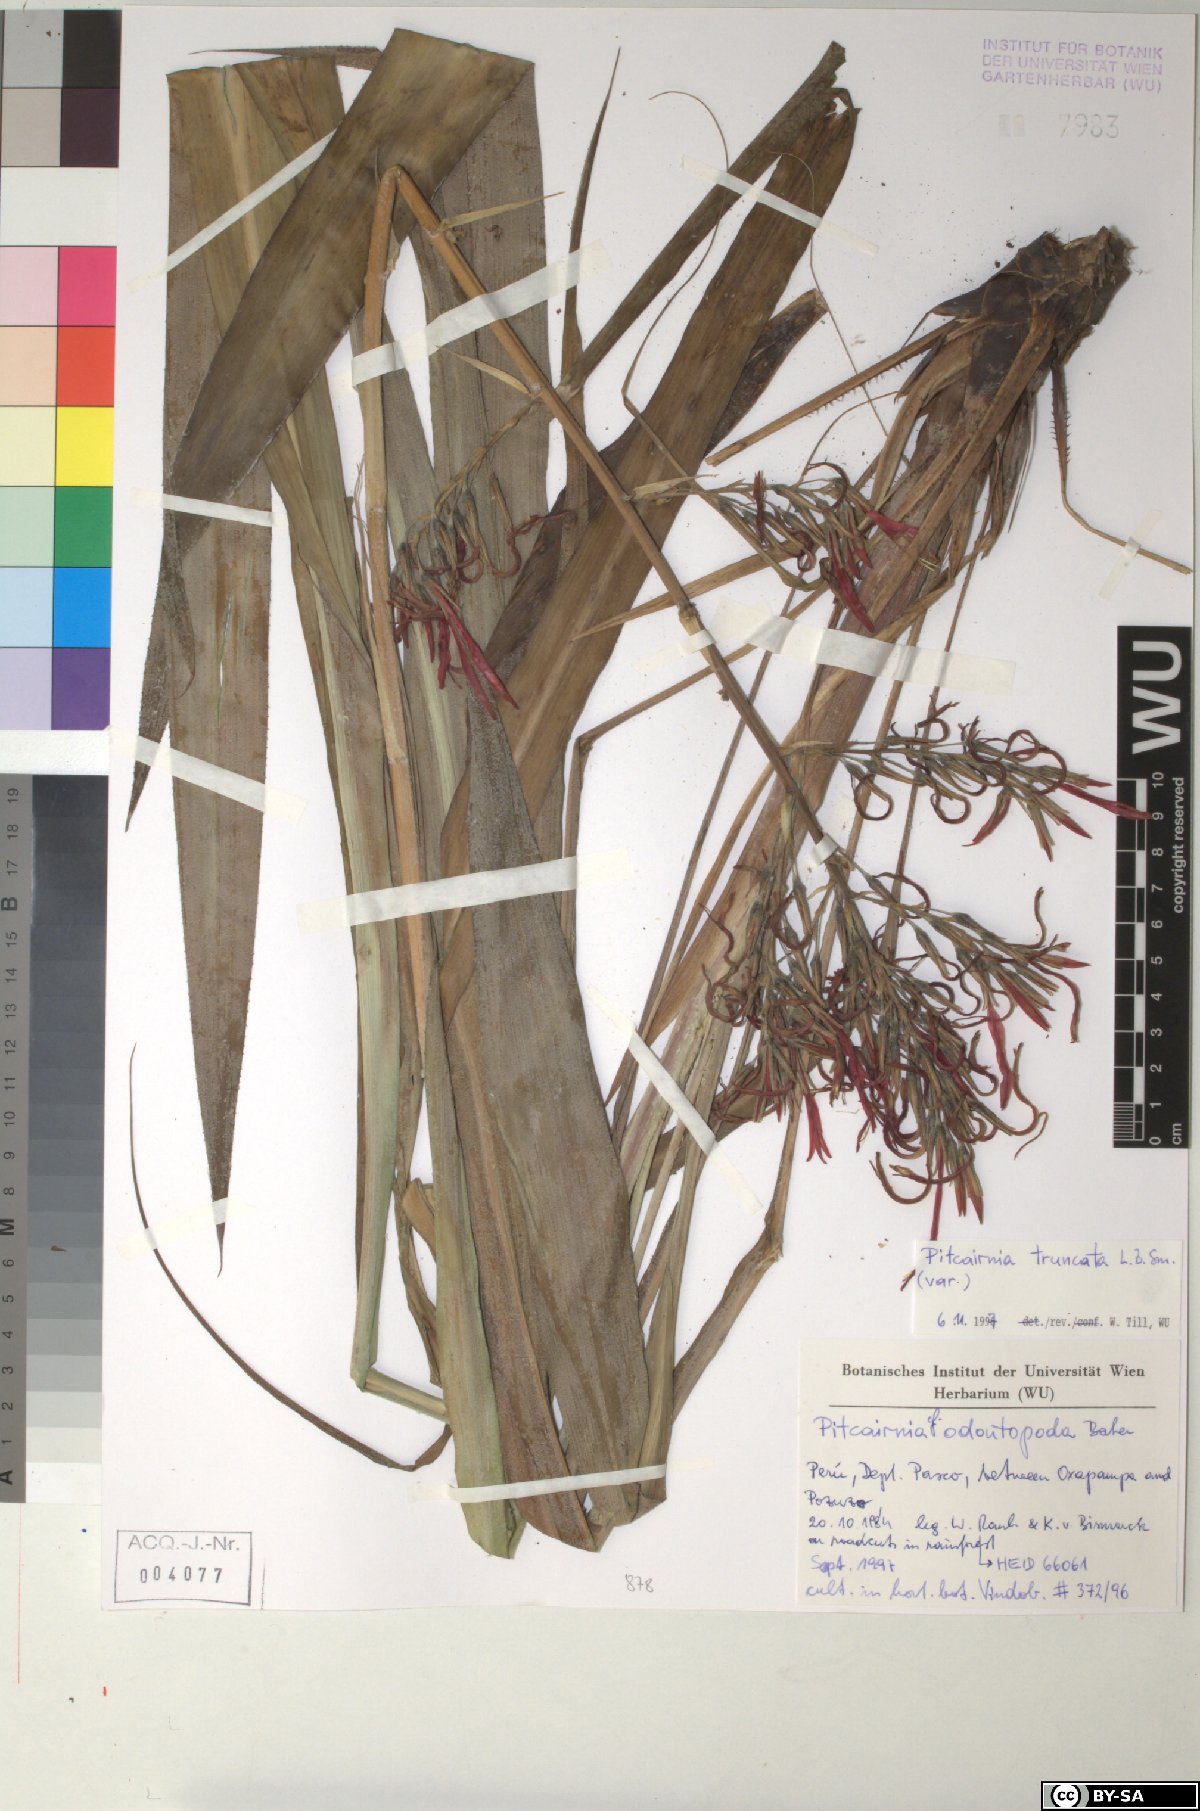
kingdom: Plantae
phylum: Tracheophyta
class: Liliopsida
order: Poales
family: Bromeliaceae
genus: Pitcairnia
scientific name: Pitcairnia truncata
